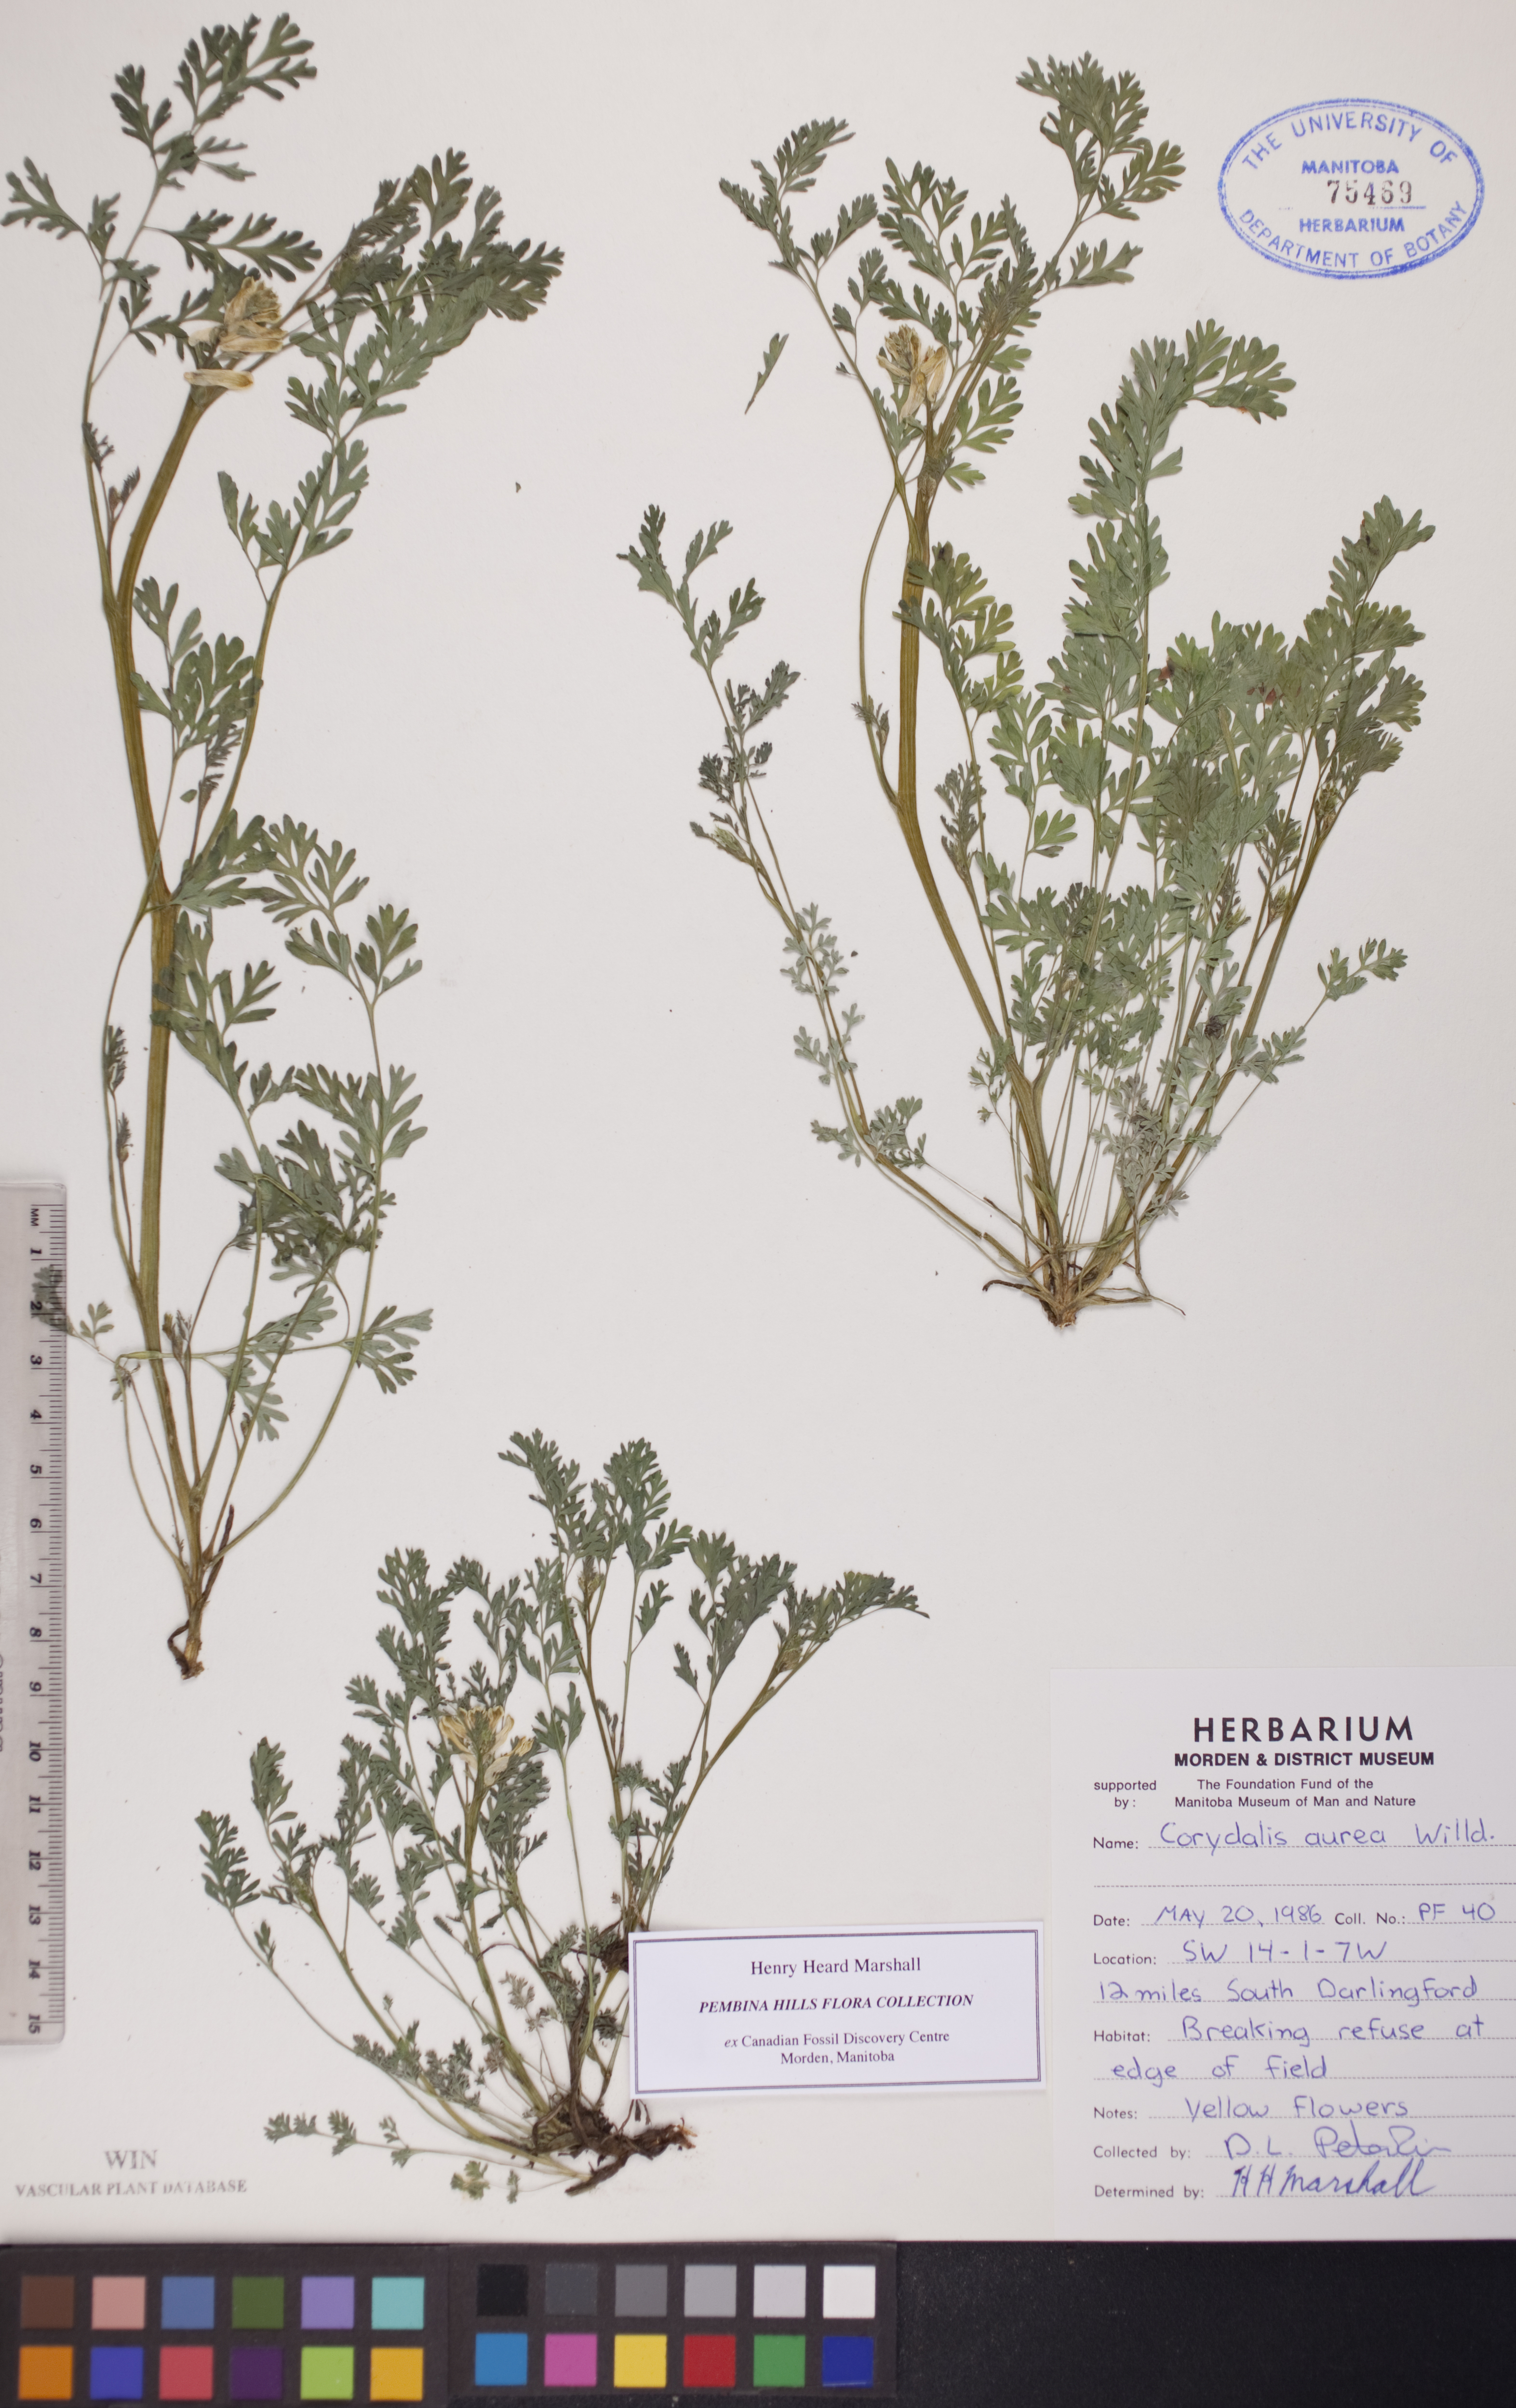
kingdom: Plantae
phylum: Tracheophyta
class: Magnoliopsida
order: Ranunculales
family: Papaveraceae
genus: Corydalis
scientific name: Corydalis aurea
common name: Golden corydalis
